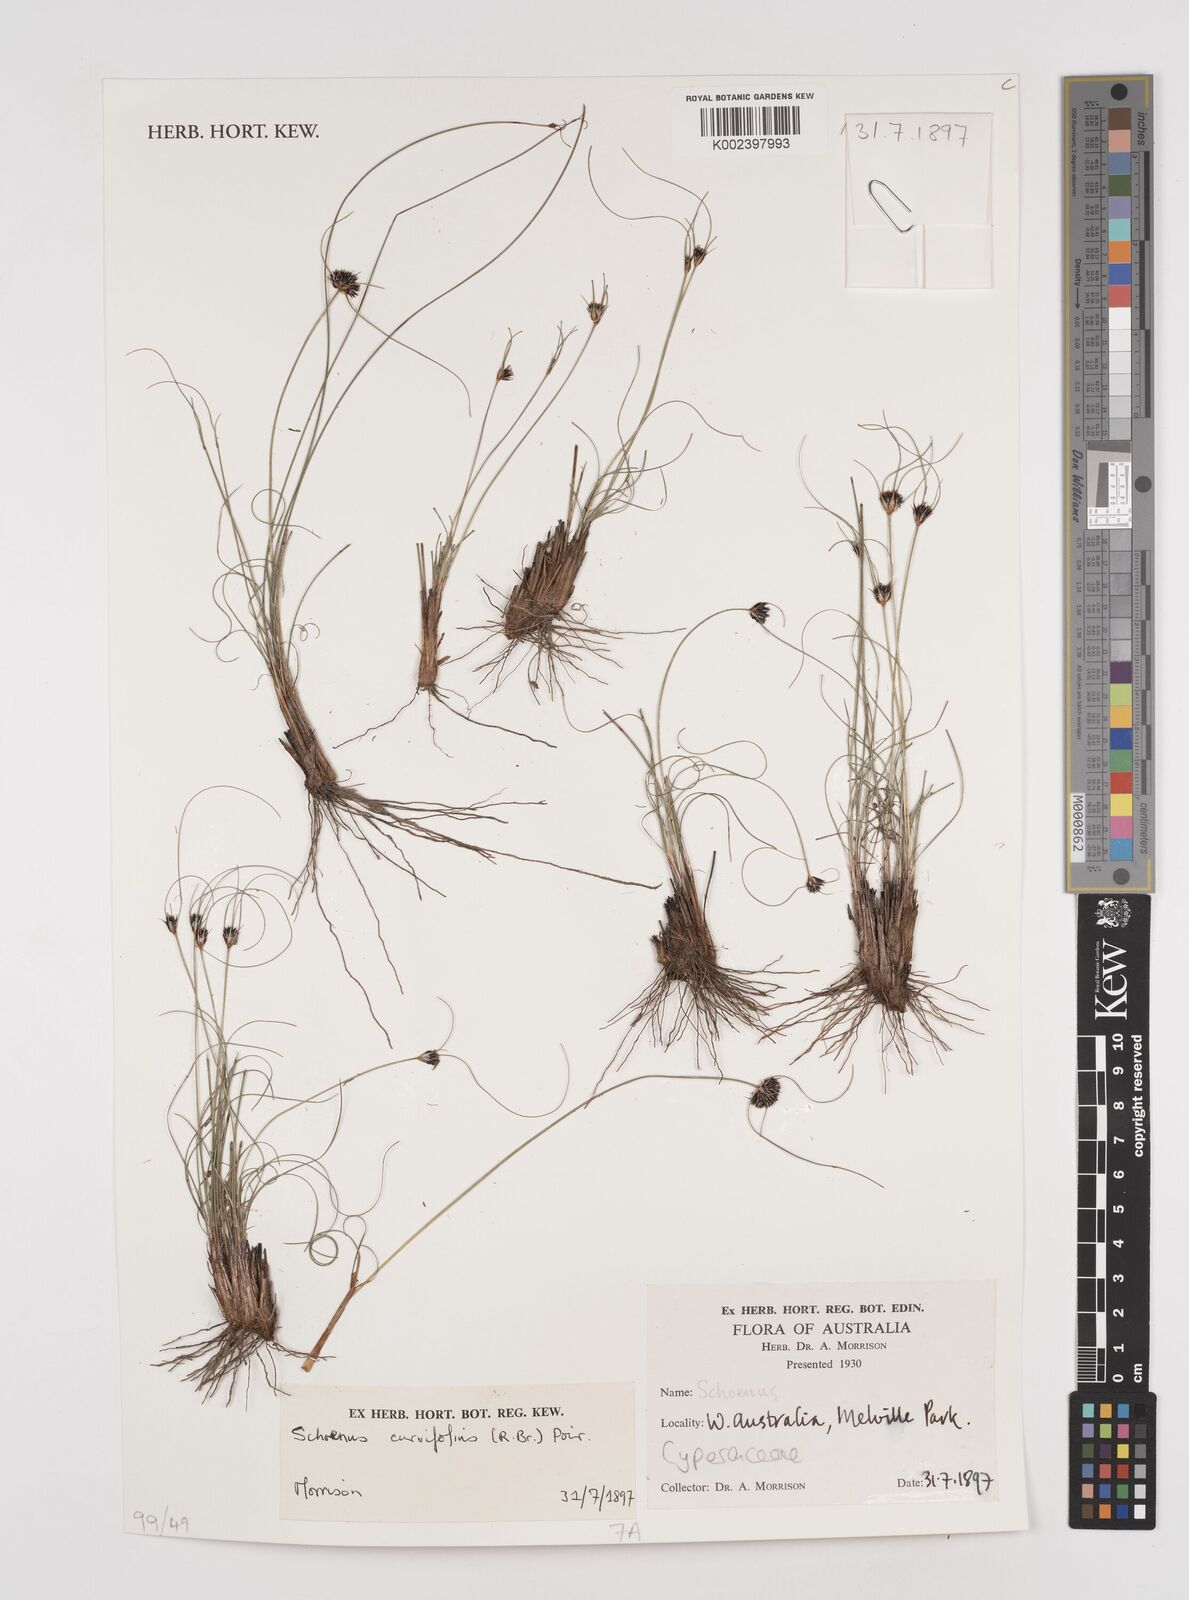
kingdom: Plantae
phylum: Tracheophyta
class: Liliopsida
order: Poales
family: Cyperaceae
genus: Schoenus
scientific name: Schoenus curvifolius
